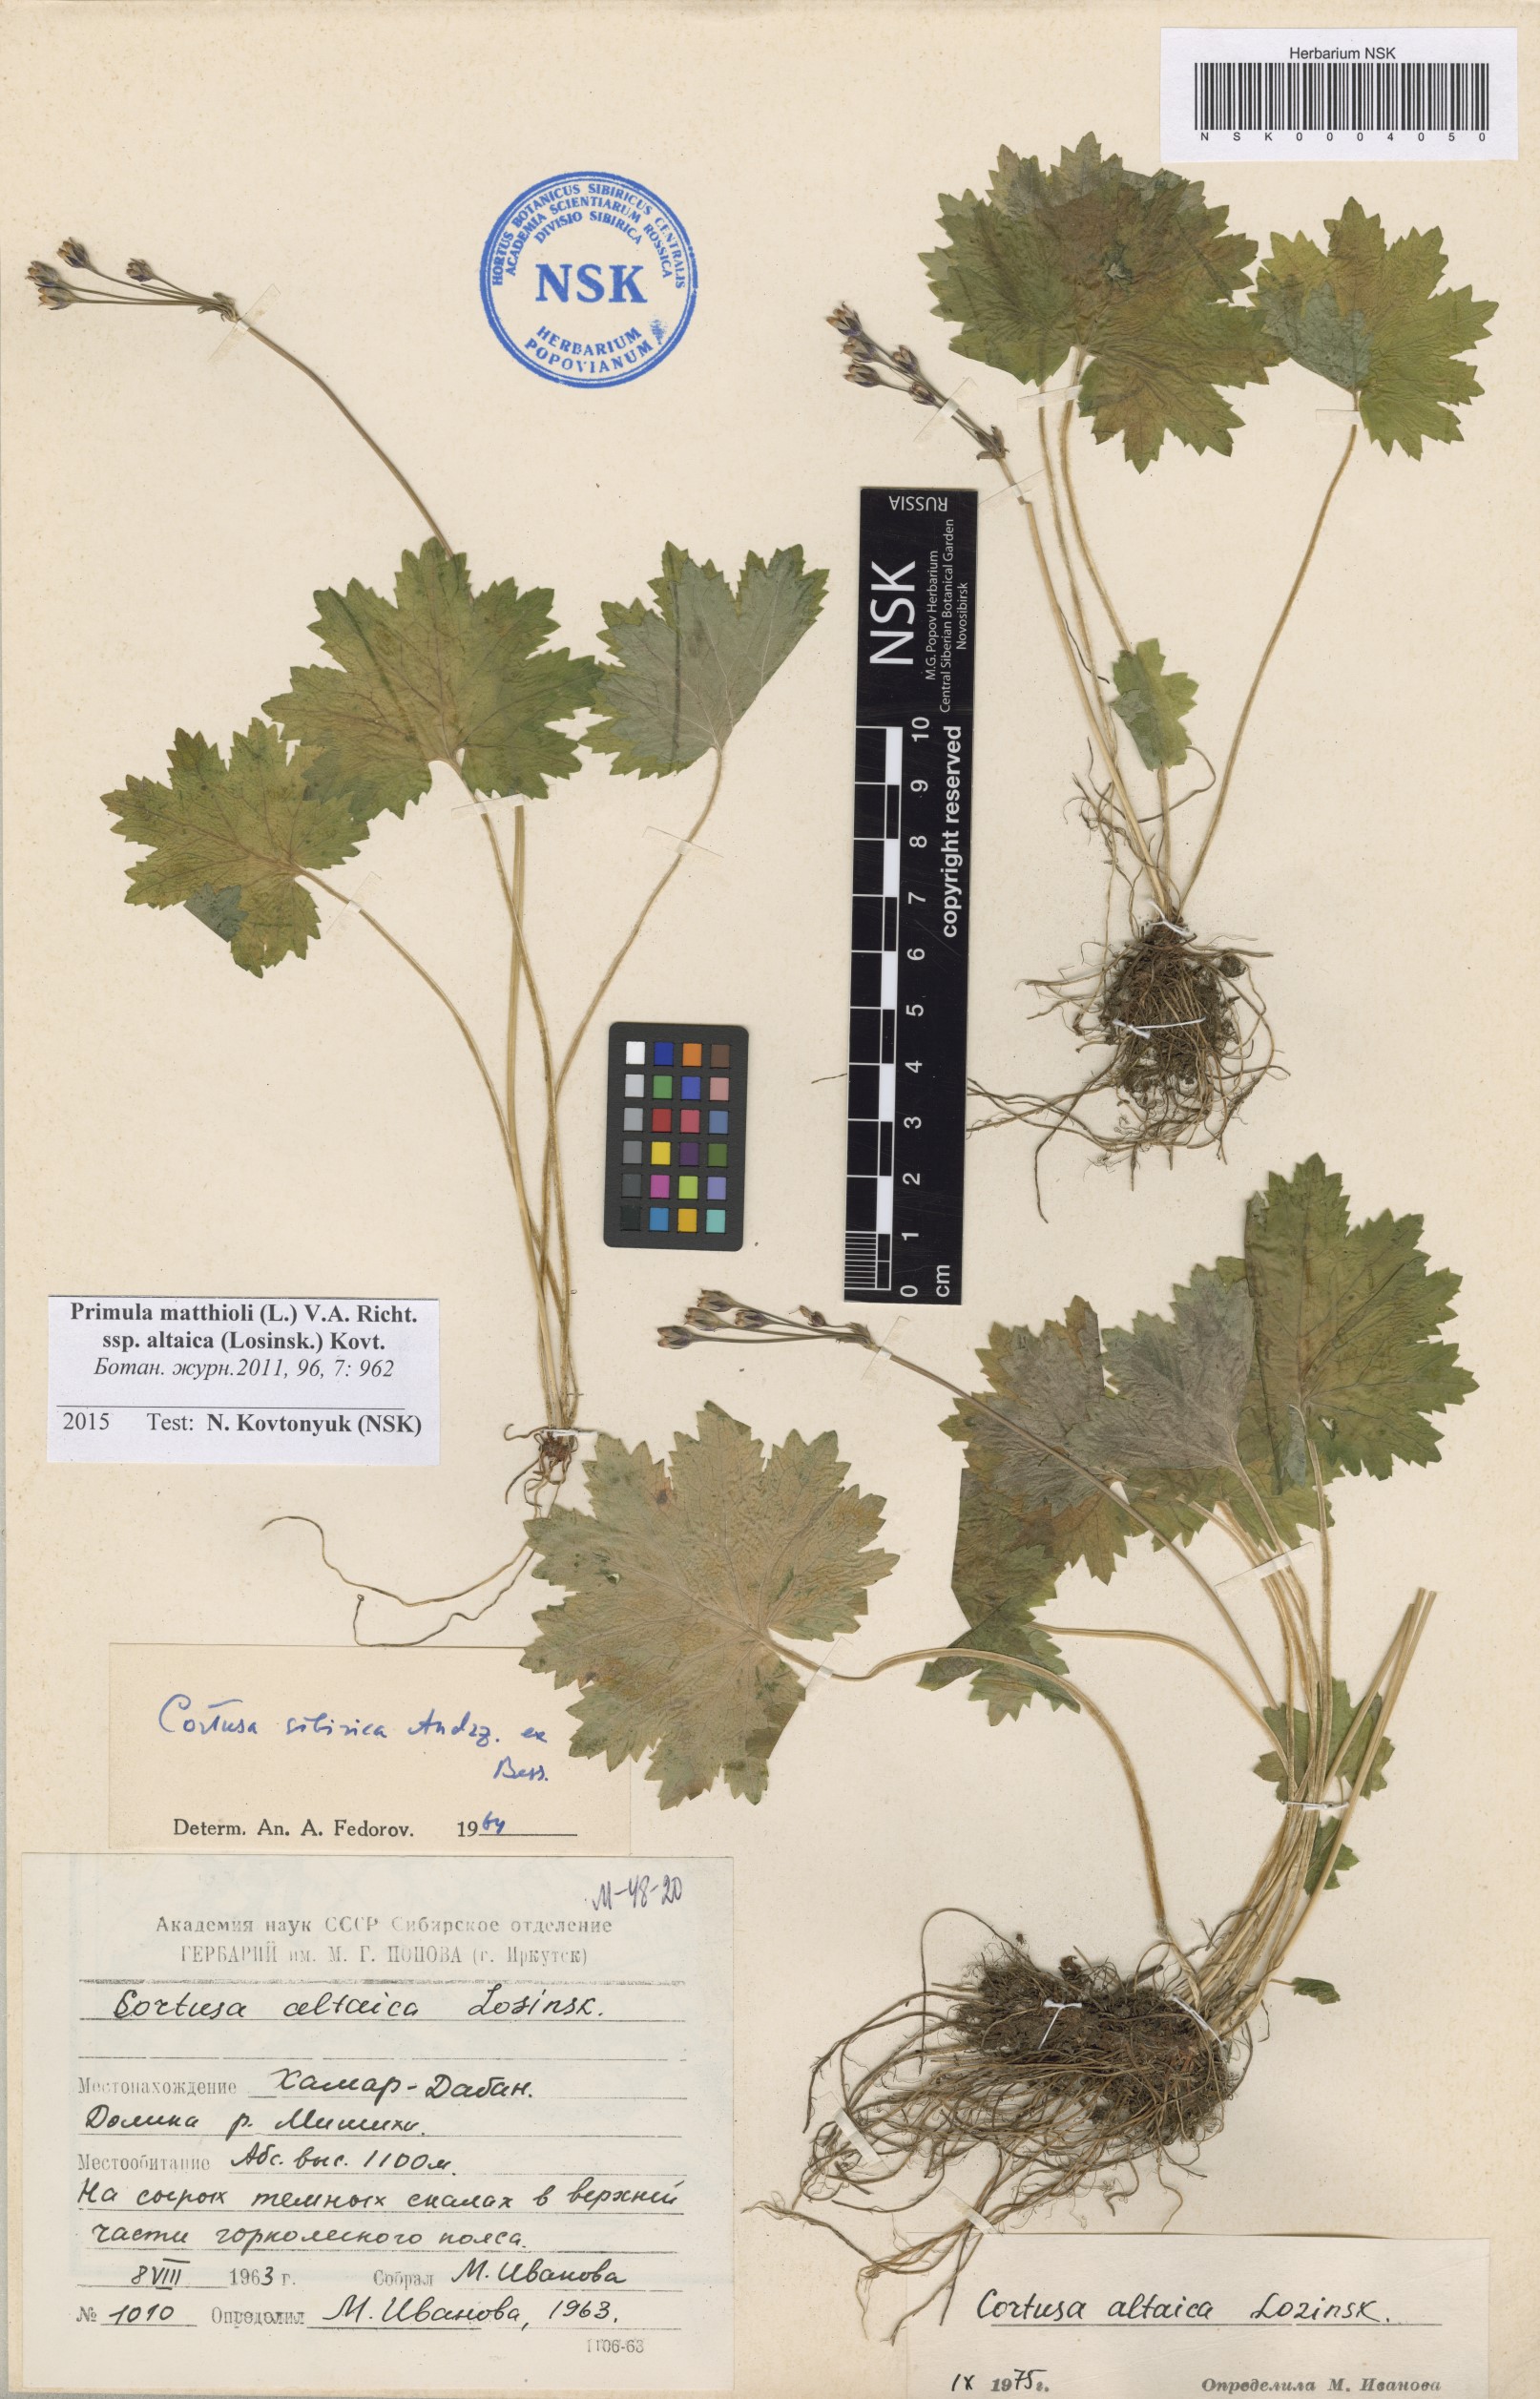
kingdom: Plantae
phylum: Tracheophyta
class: Magnoliopsida
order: Ericales
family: Primulaceae
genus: Primula
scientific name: Primula matthioli
